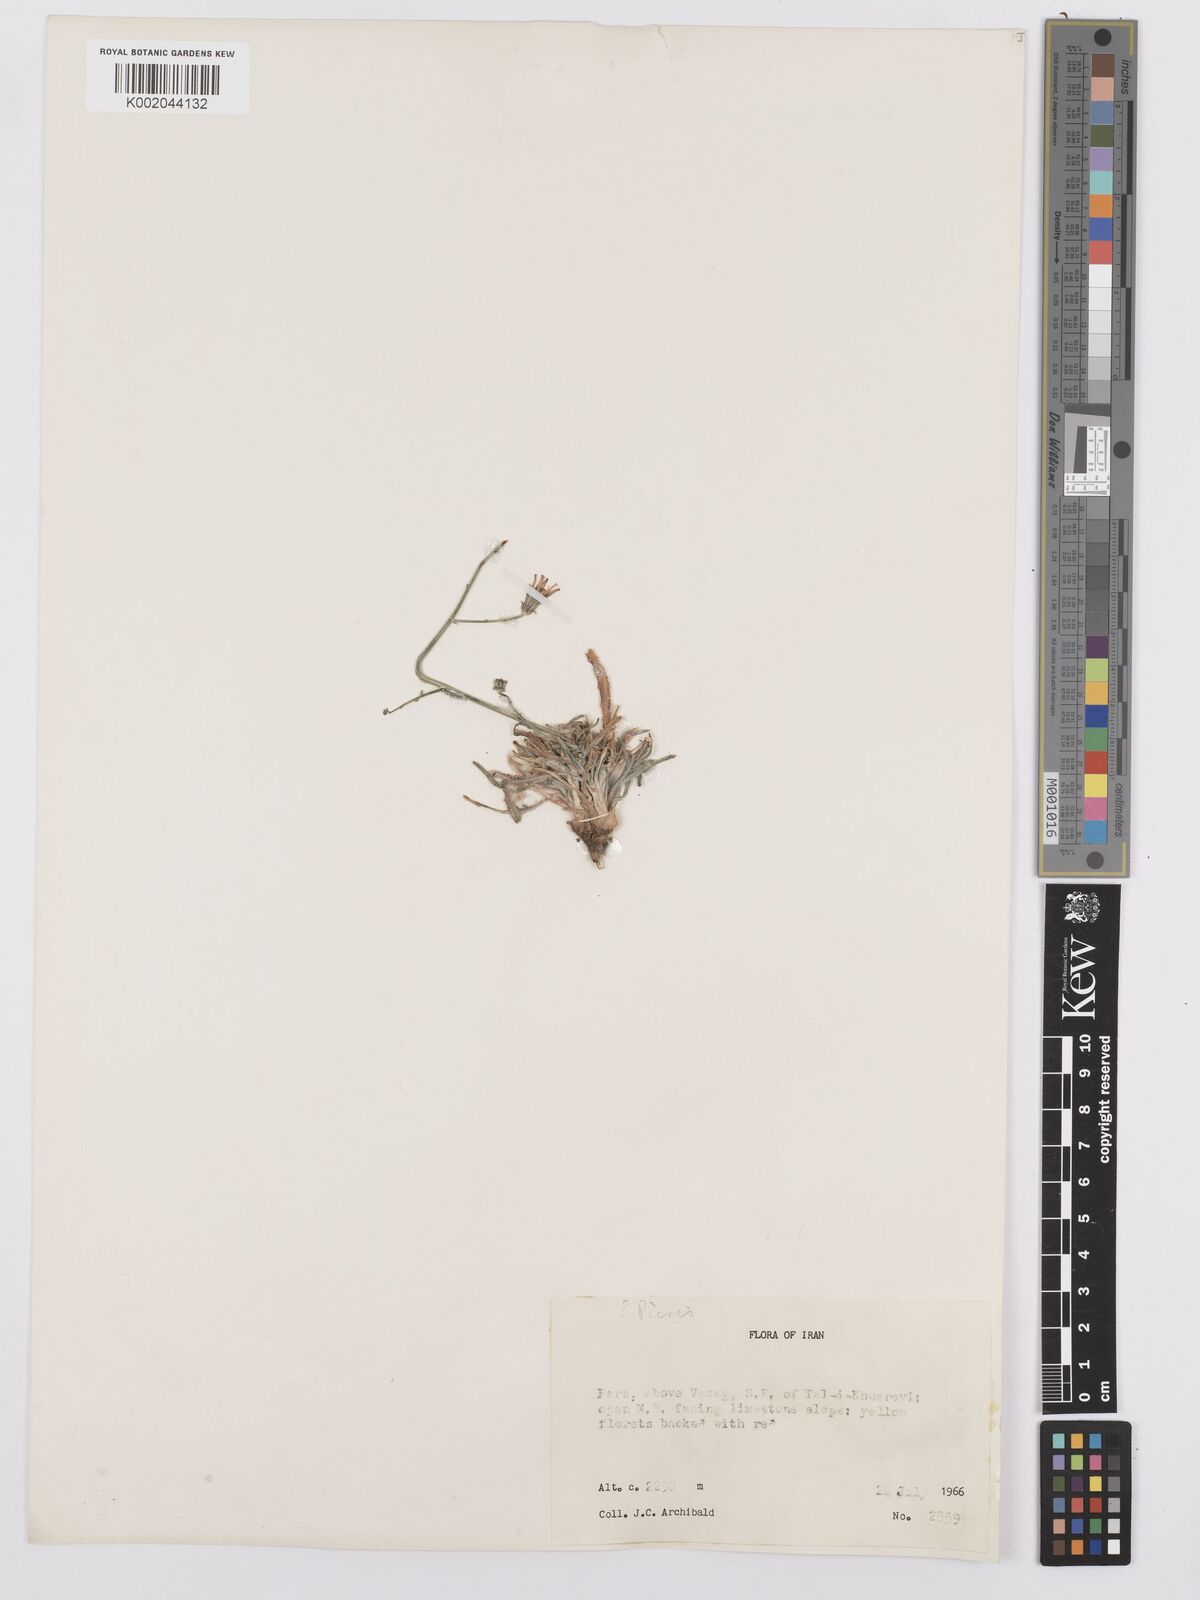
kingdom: Plantae
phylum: Tracheophyta
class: Magnoliopsida
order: Asterales
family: Asteraceae
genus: Picris
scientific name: Picris
